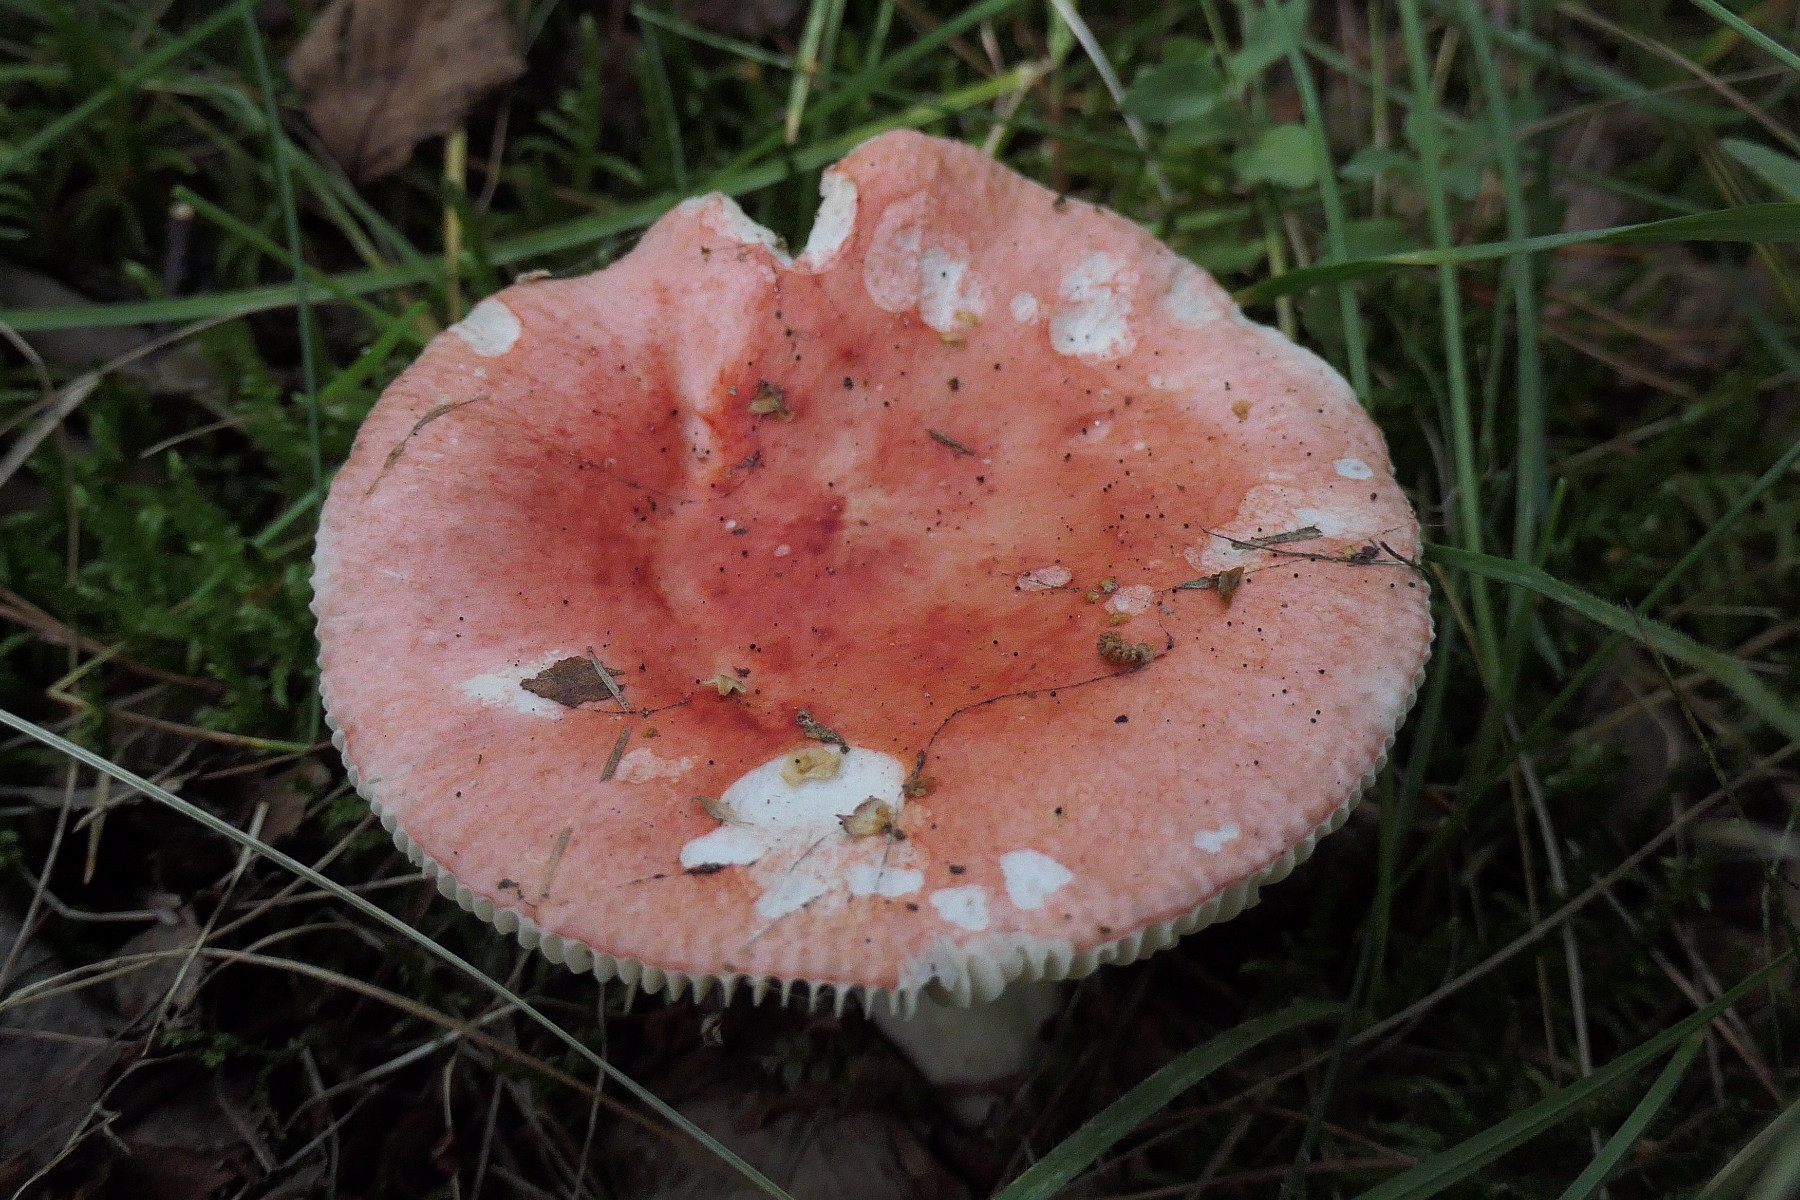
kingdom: Fungi
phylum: Basidiomycota
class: Agaricomycetes
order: Russulales
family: Russulaceae
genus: Russula
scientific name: Russula sanguinea
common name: blodrød skørhat
